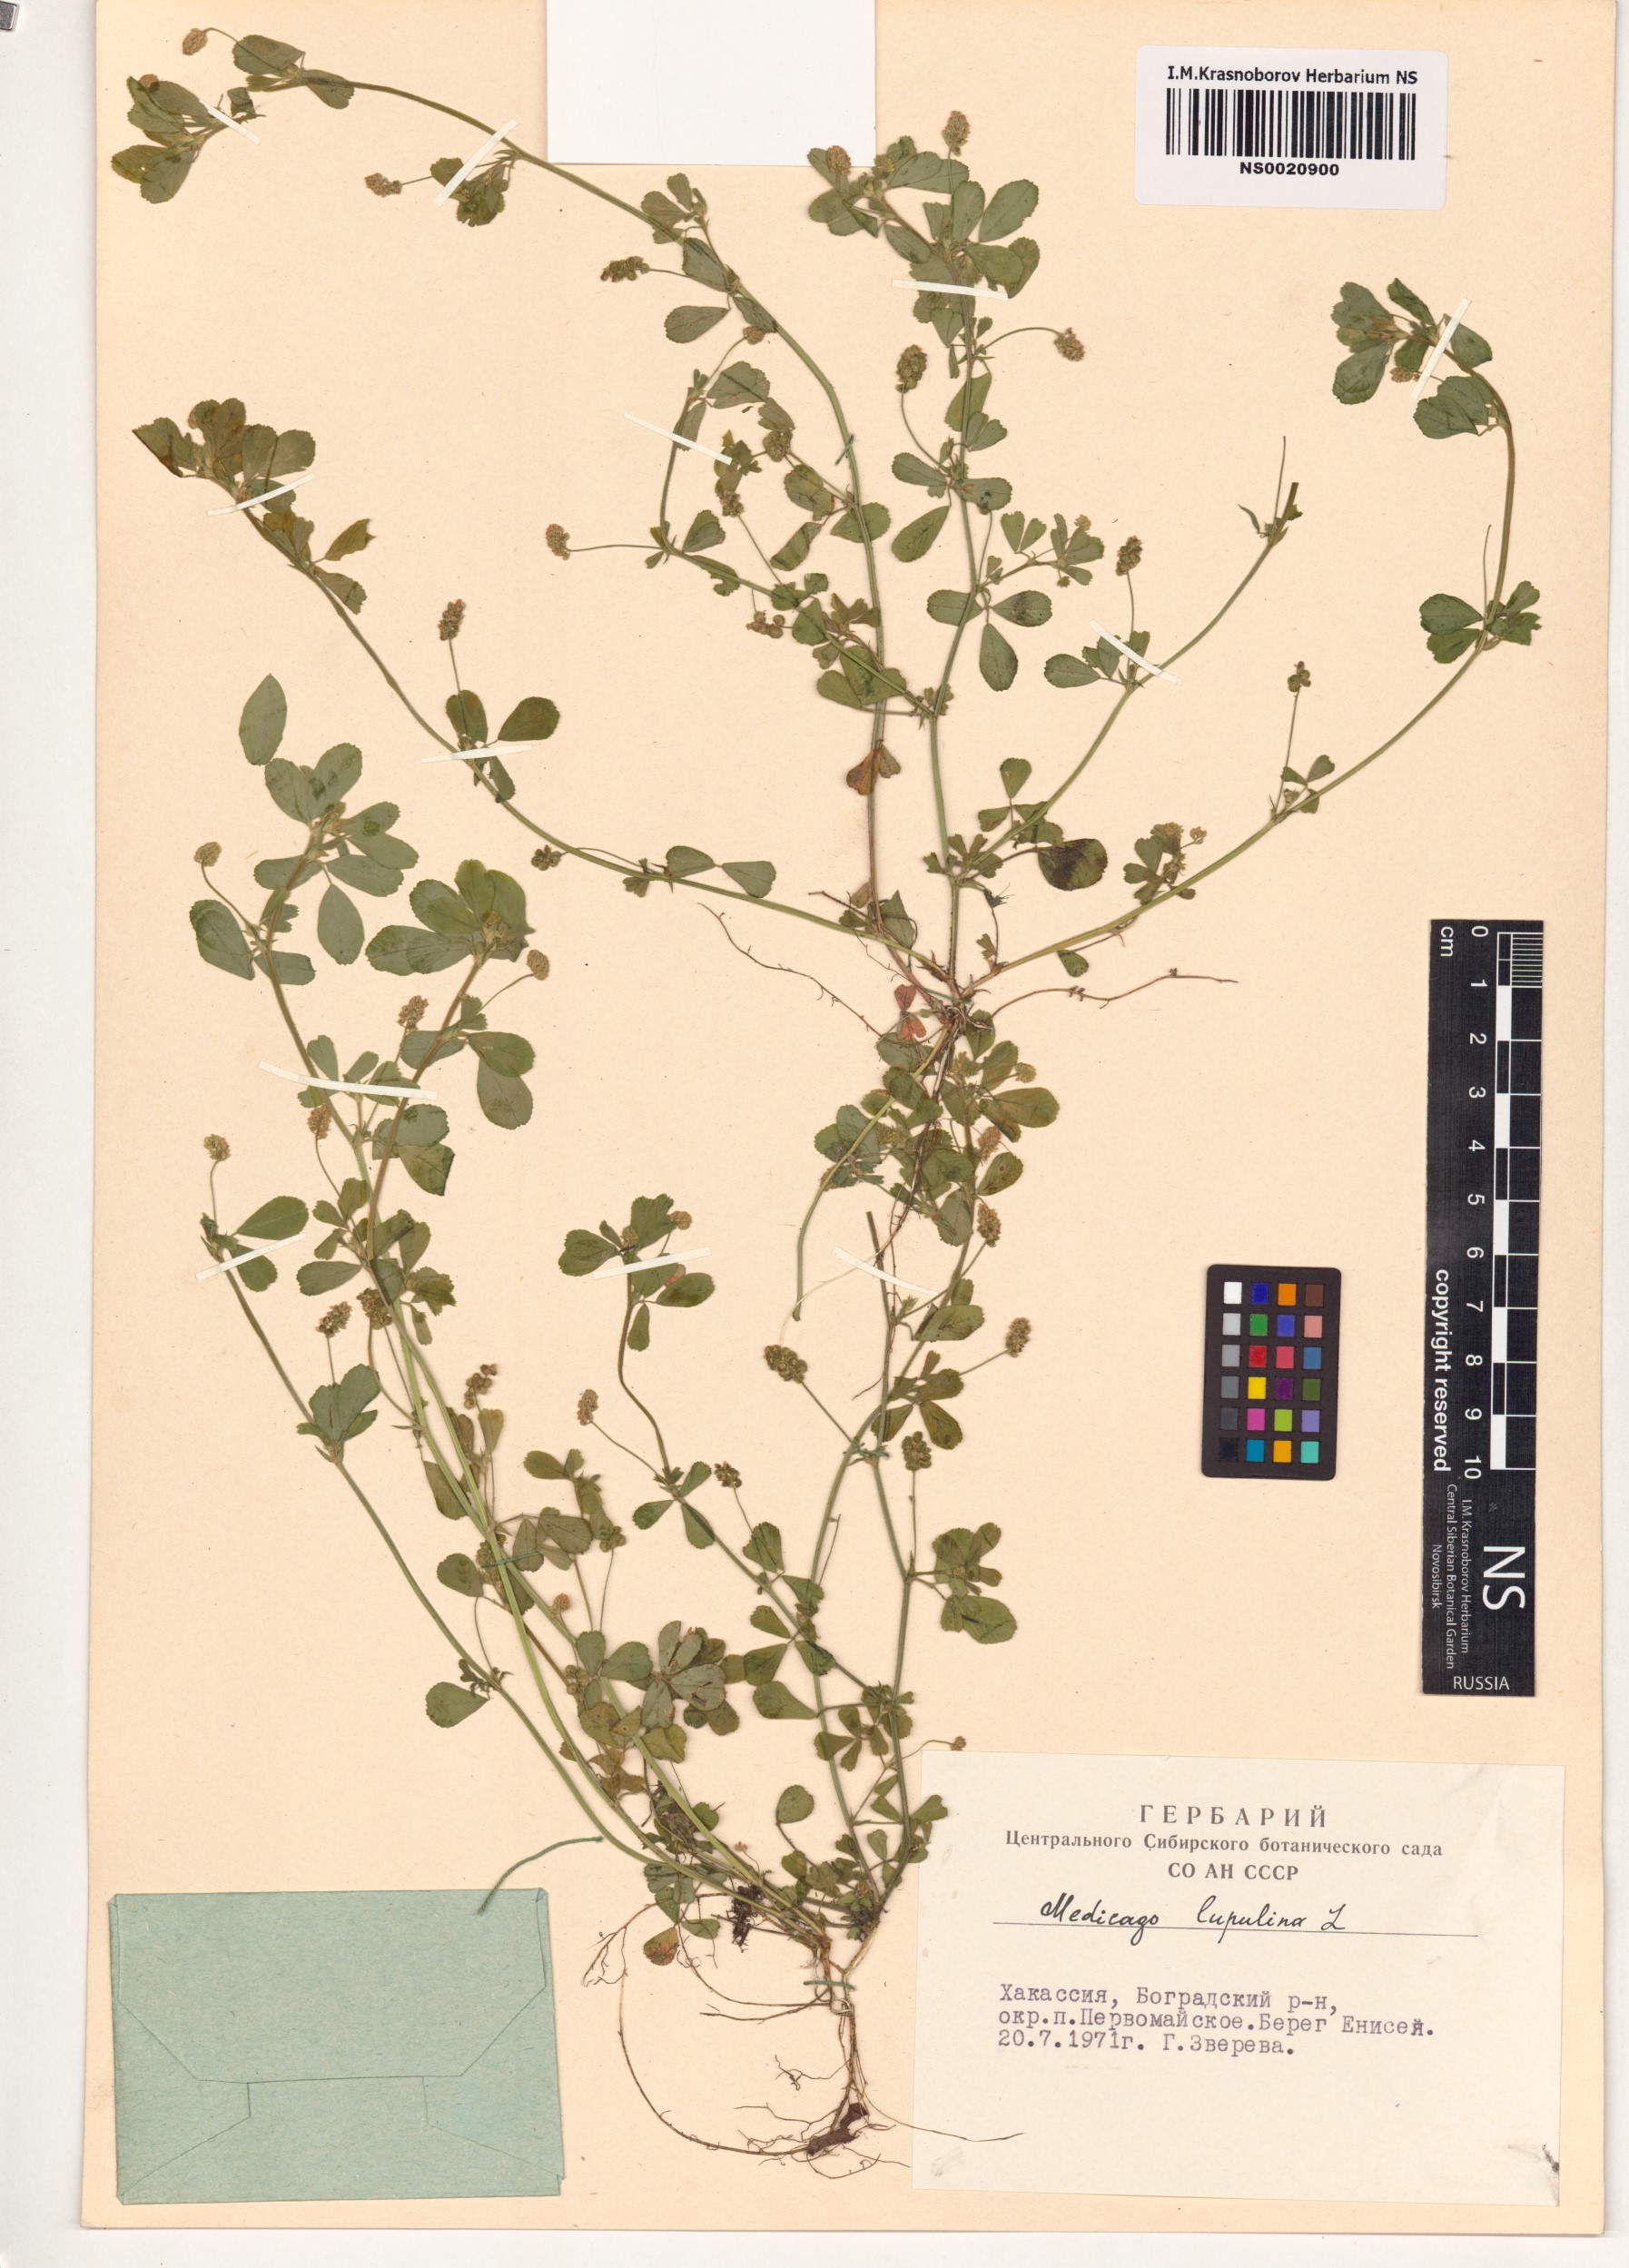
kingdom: Plantae
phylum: Tracheophyta
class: Magnoliopsida
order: Fabales
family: Fabaceae
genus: Medicago
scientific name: Medicago lupulina
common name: Black medick
